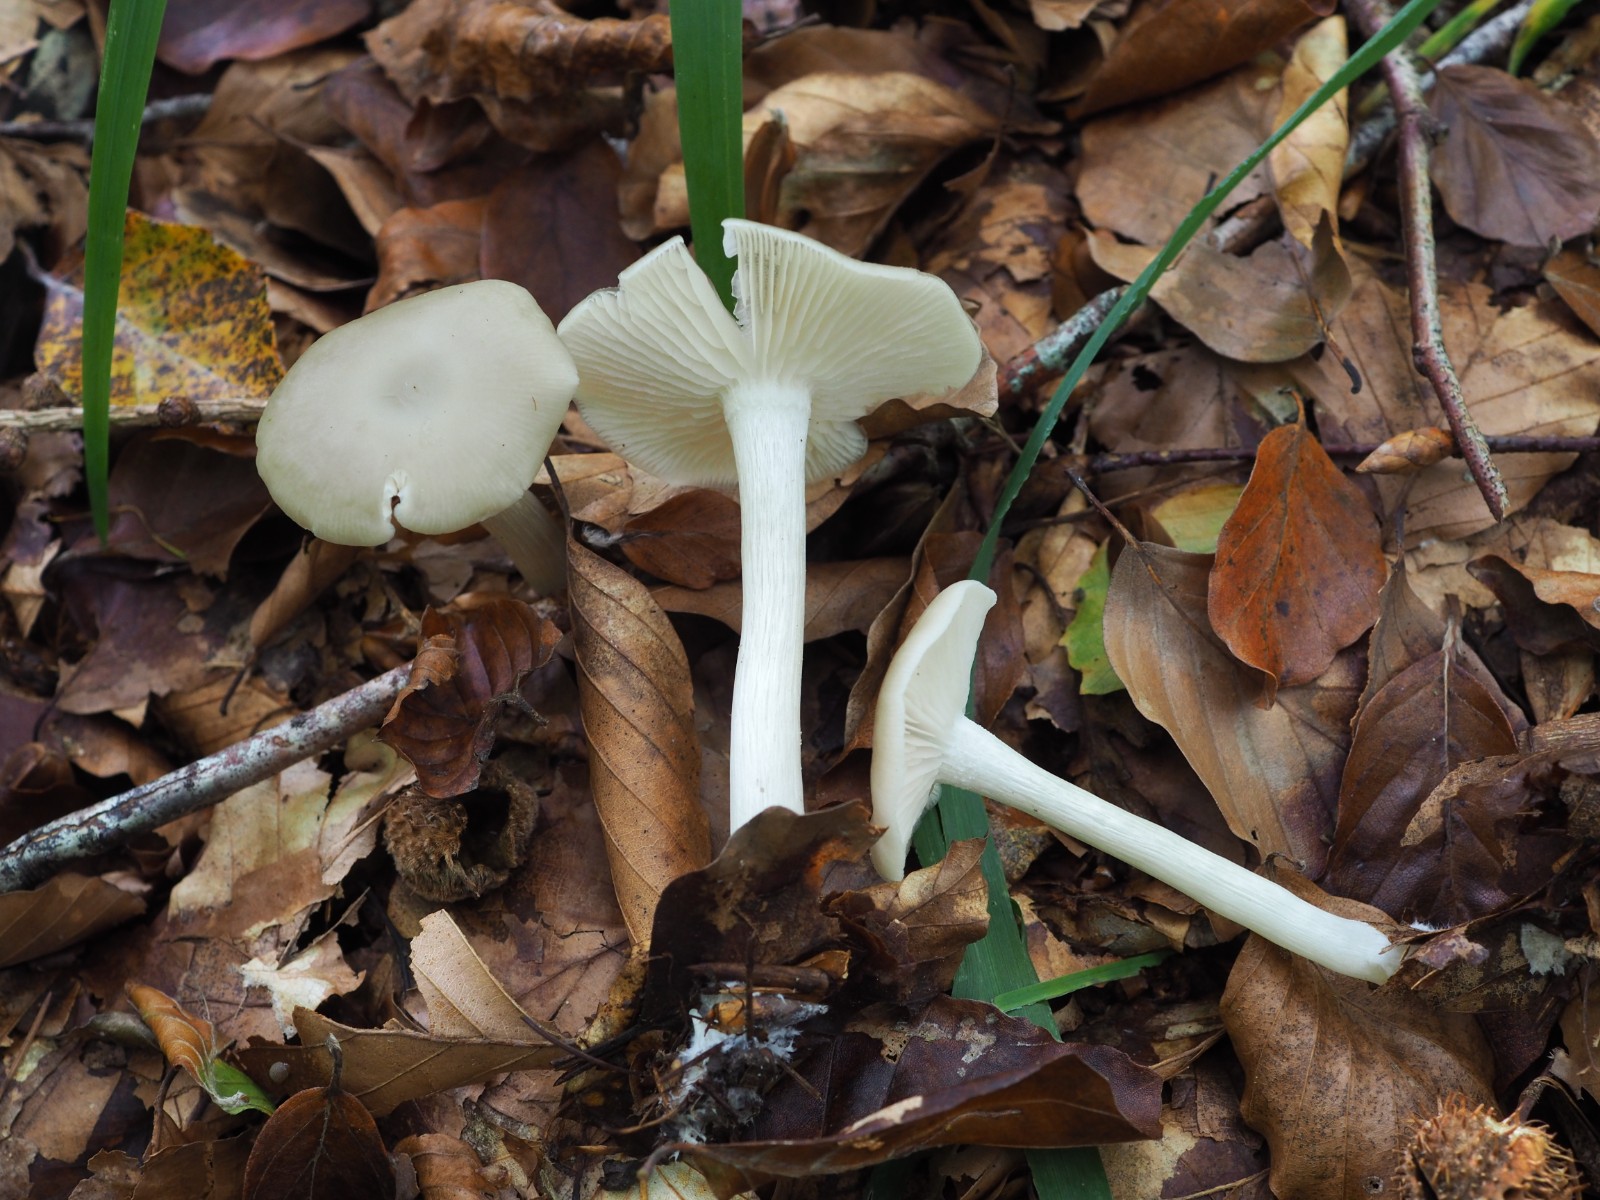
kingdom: Fungi
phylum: Basidiomycota
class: Agaricomycetes
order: Agaricales
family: Entolomataceae
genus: Entoloma
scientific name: Entoloma rhodopolium
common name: skov-rødblad
